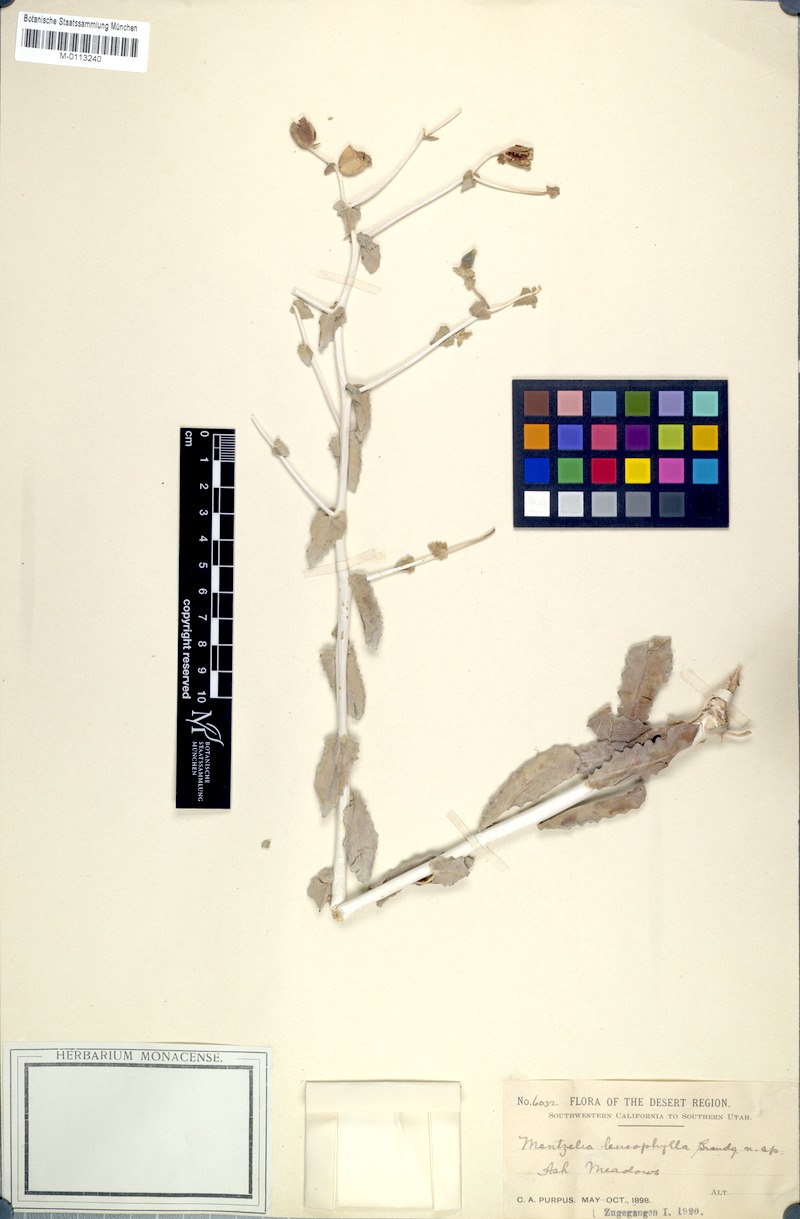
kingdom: Plantae
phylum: Tracheophyta
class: Magnoliopsida
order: Cornales
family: Loasaceae
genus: Mentzelia
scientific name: Mentzelia leucophylla
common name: Ash meadows blazingstar
